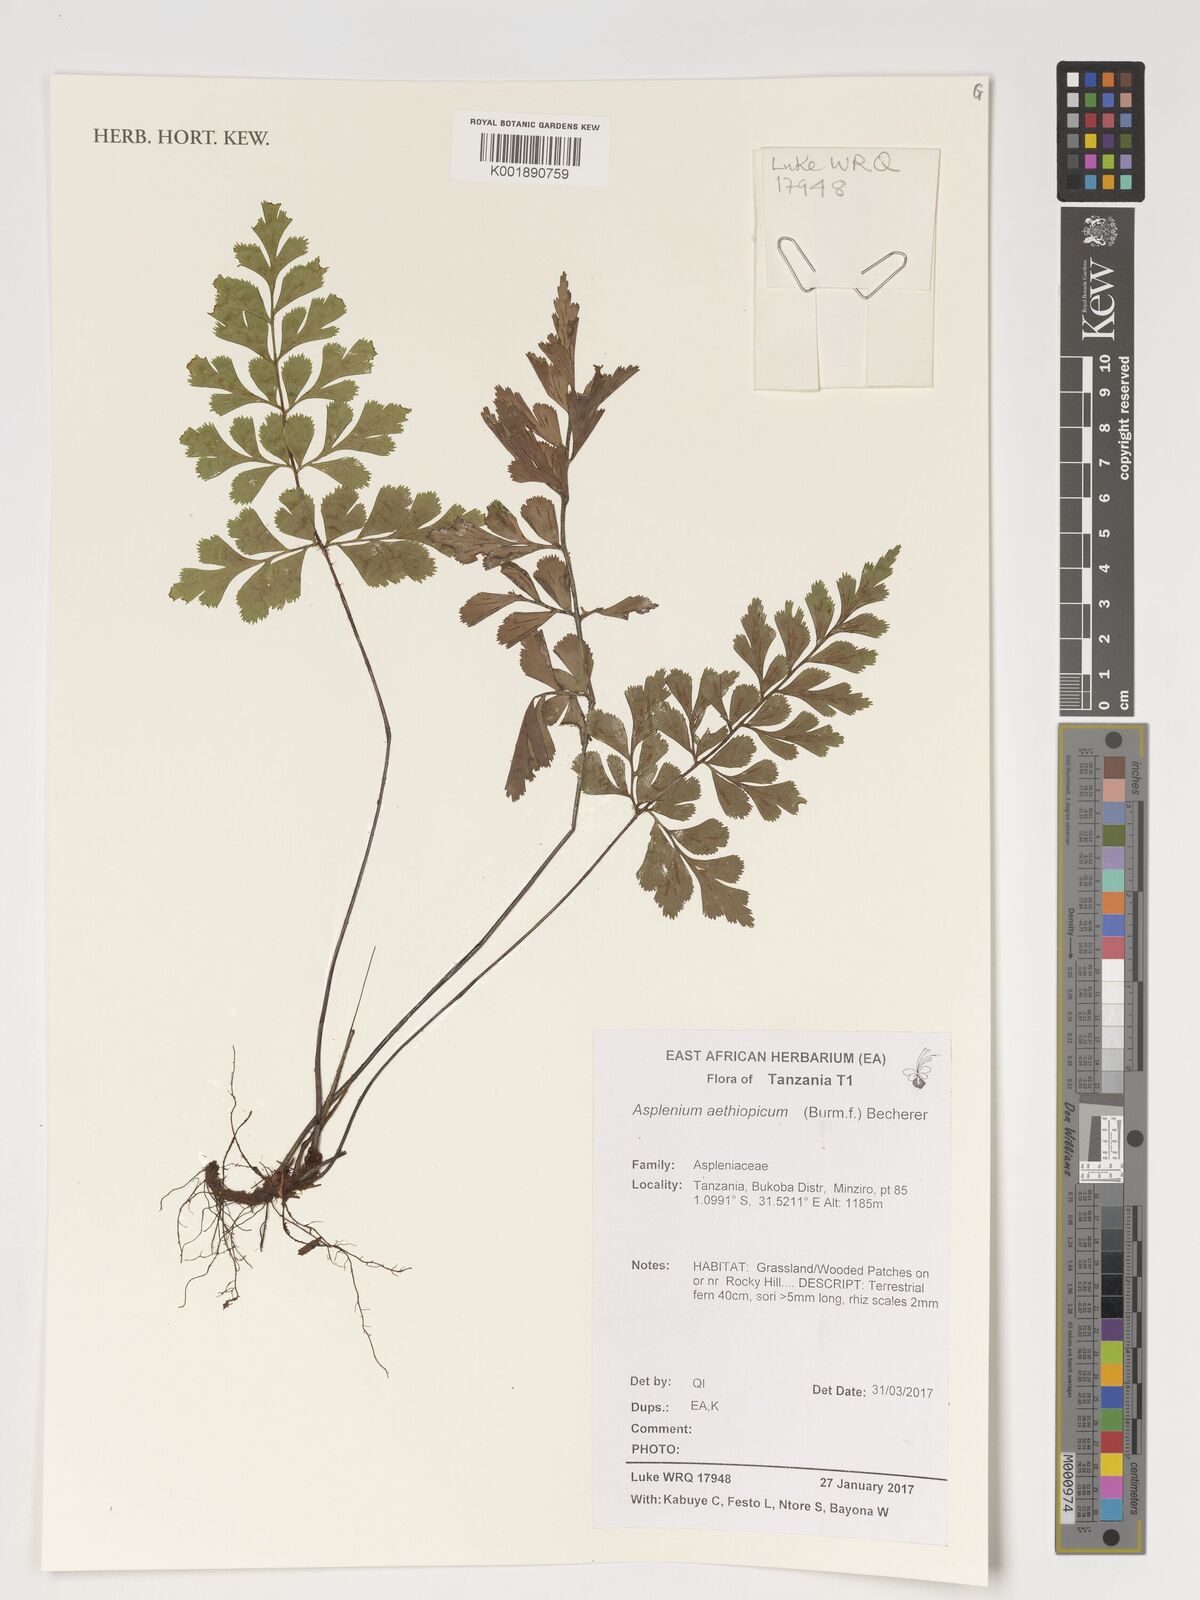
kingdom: Plantae
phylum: Tracheophyta
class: Polypodiopsida
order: Polypodiales
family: Aspleniaceae
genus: Asplenium
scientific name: Asplenium aethiopicum
